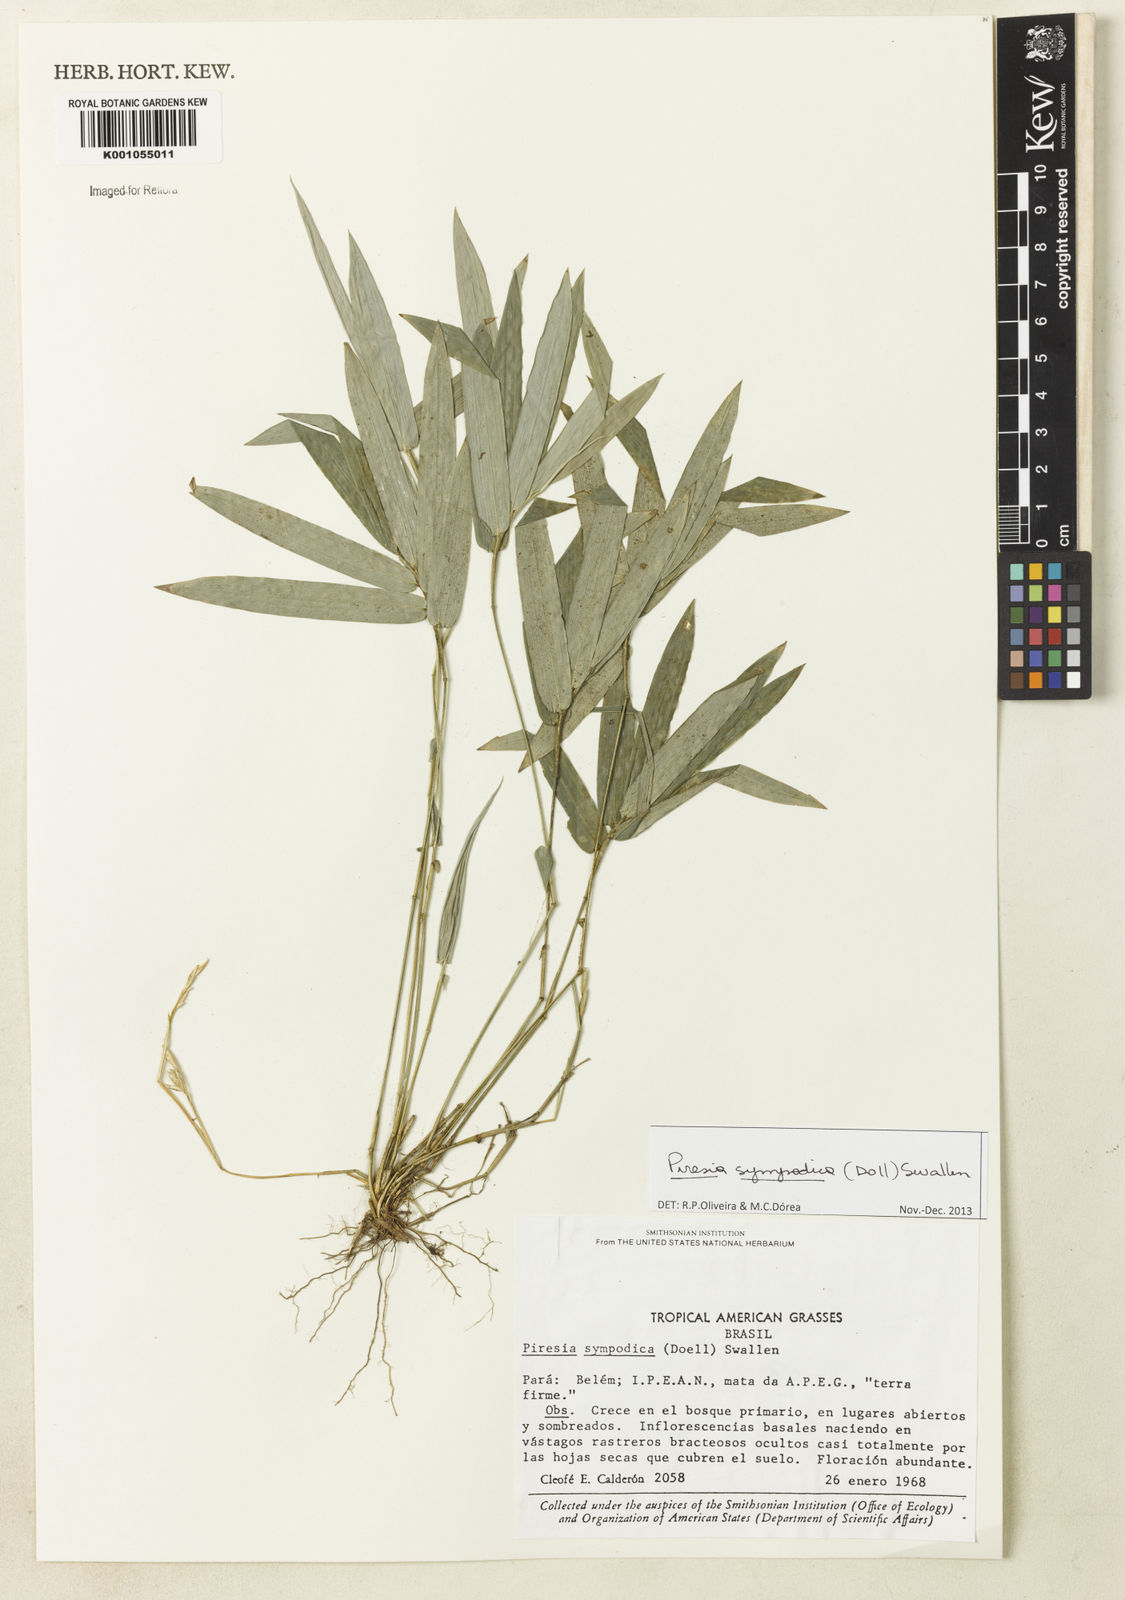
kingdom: Plantae
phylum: Tracheophyta
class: Liliopsida
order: Poales
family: Poaceae
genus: Piresia
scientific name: Piresia
